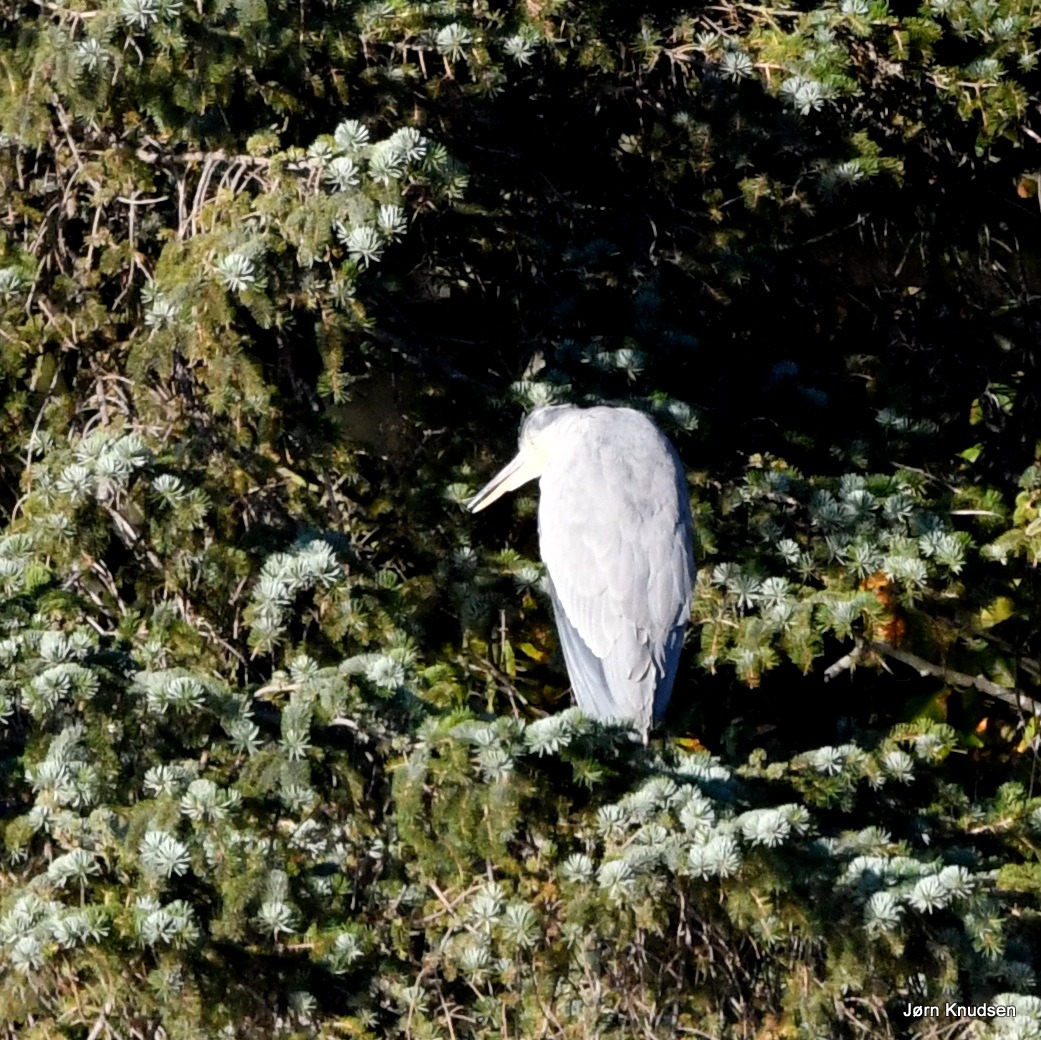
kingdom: Animalia
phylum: Chordata
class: Aves
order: Pelecaniformes
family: Ardeidae
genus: Ardea
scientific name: Ardea cinerea
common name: Fiskehejre
